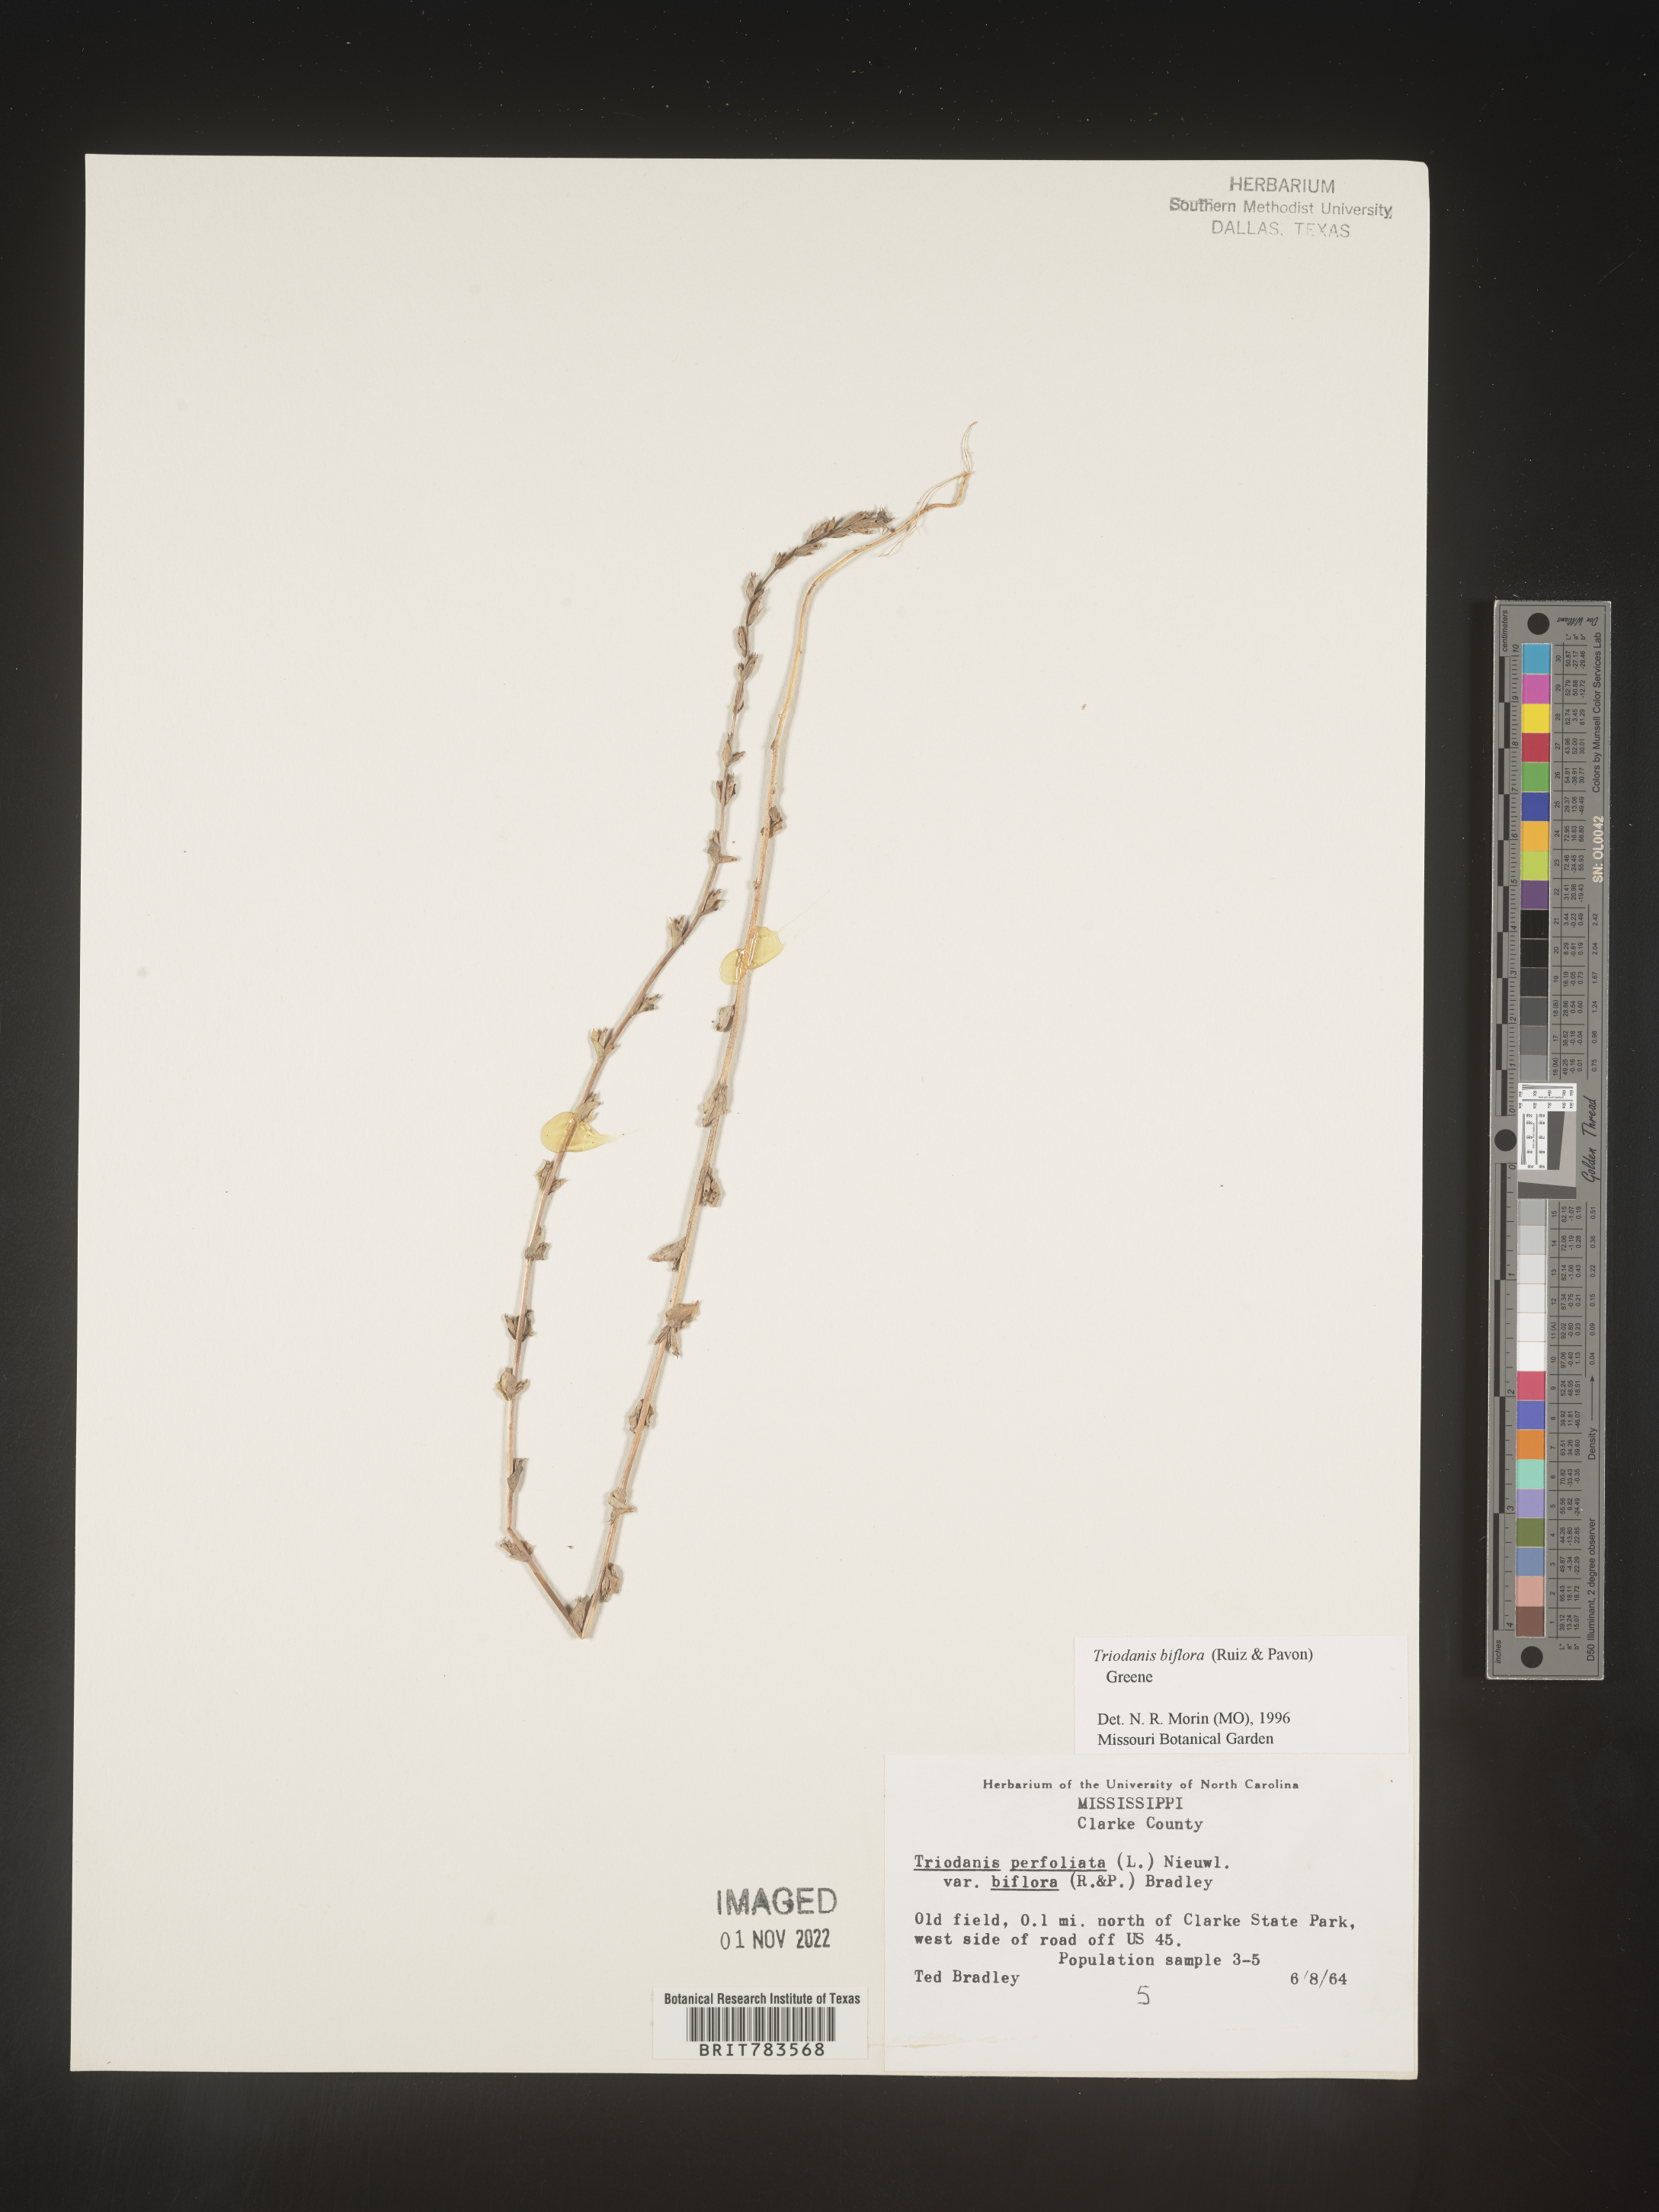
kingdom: Plantae
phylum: Tracheophyta
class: Magnoliopsida
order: Asterales
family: Campanulaceae
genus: Triodanis
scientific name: Triodanis perfoliata
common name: Clasping venus' looking-glass
